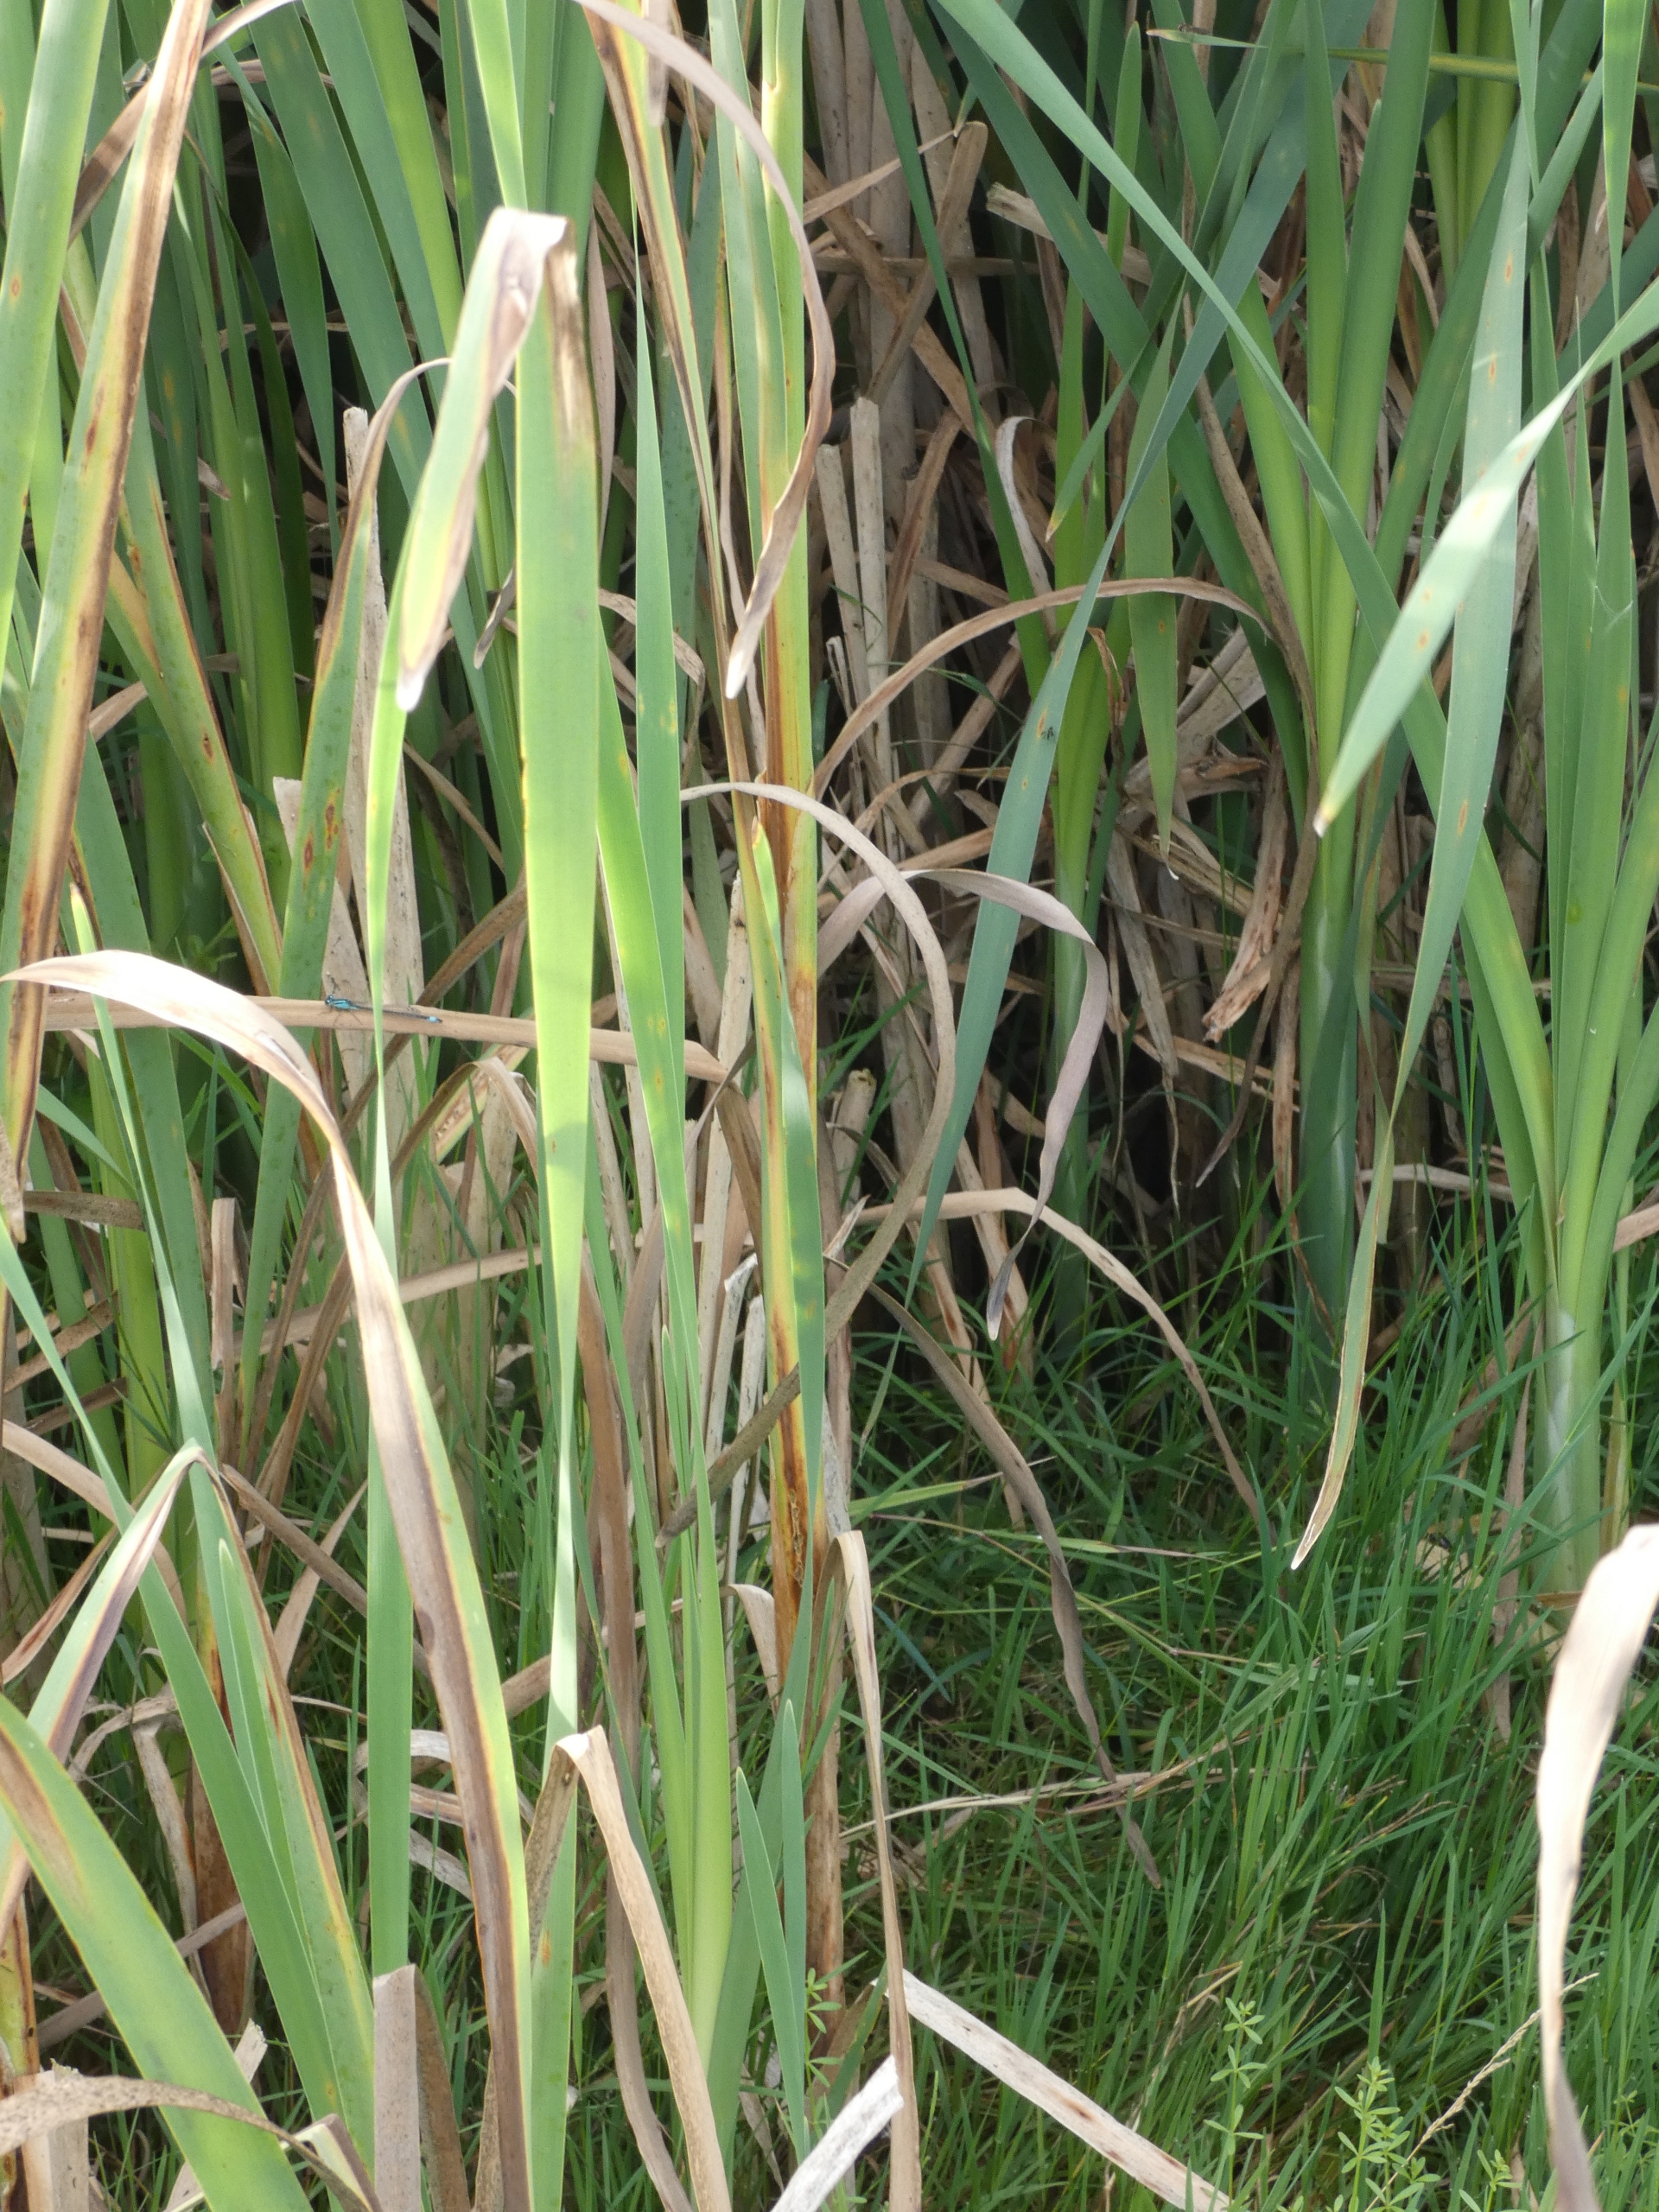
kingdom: Plantae
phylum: Tracheophyta
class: Liliopsida
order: Poales
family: Typhaceae
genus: Typha
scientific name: Typha latifolia
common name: Bredbladet dunhammer
